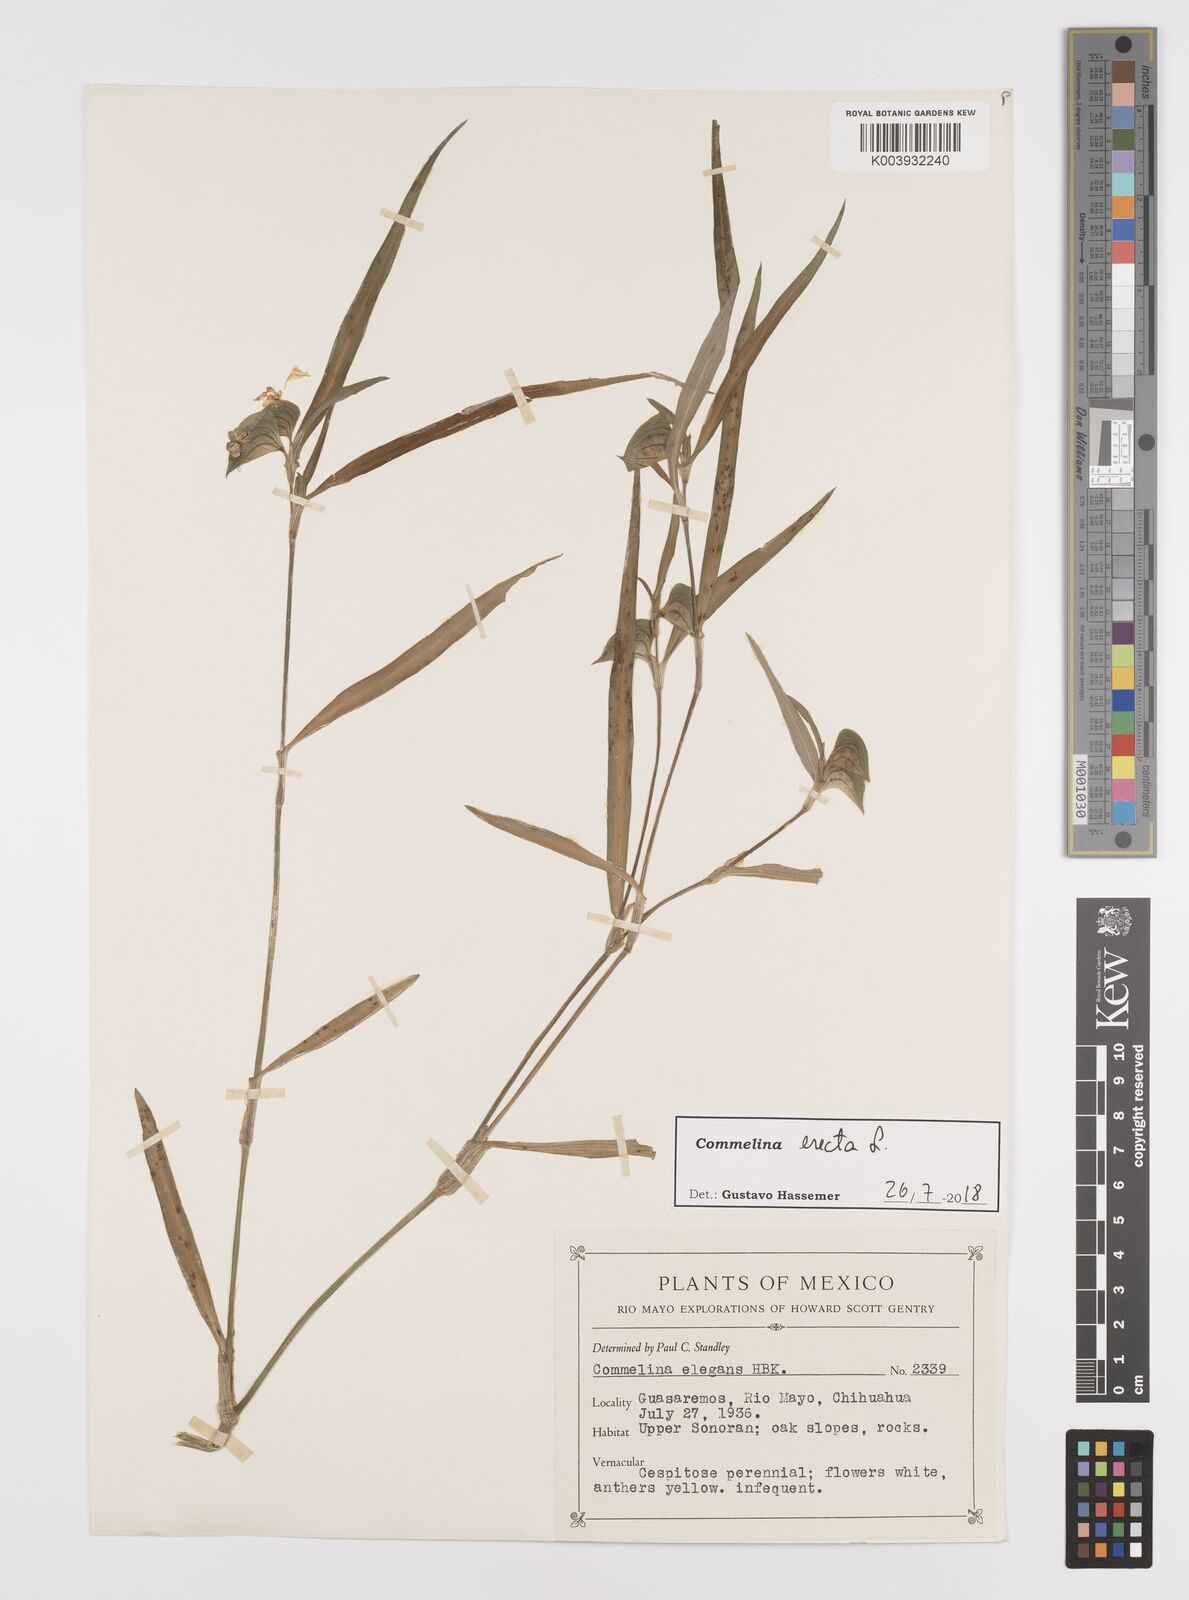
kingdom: Plantae
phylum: Tracheophyta
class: Liliopsida
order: Commelinales
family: Commelinaceae
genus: Commelina
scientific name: Commelina erecta
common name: Blousel blommetjie
